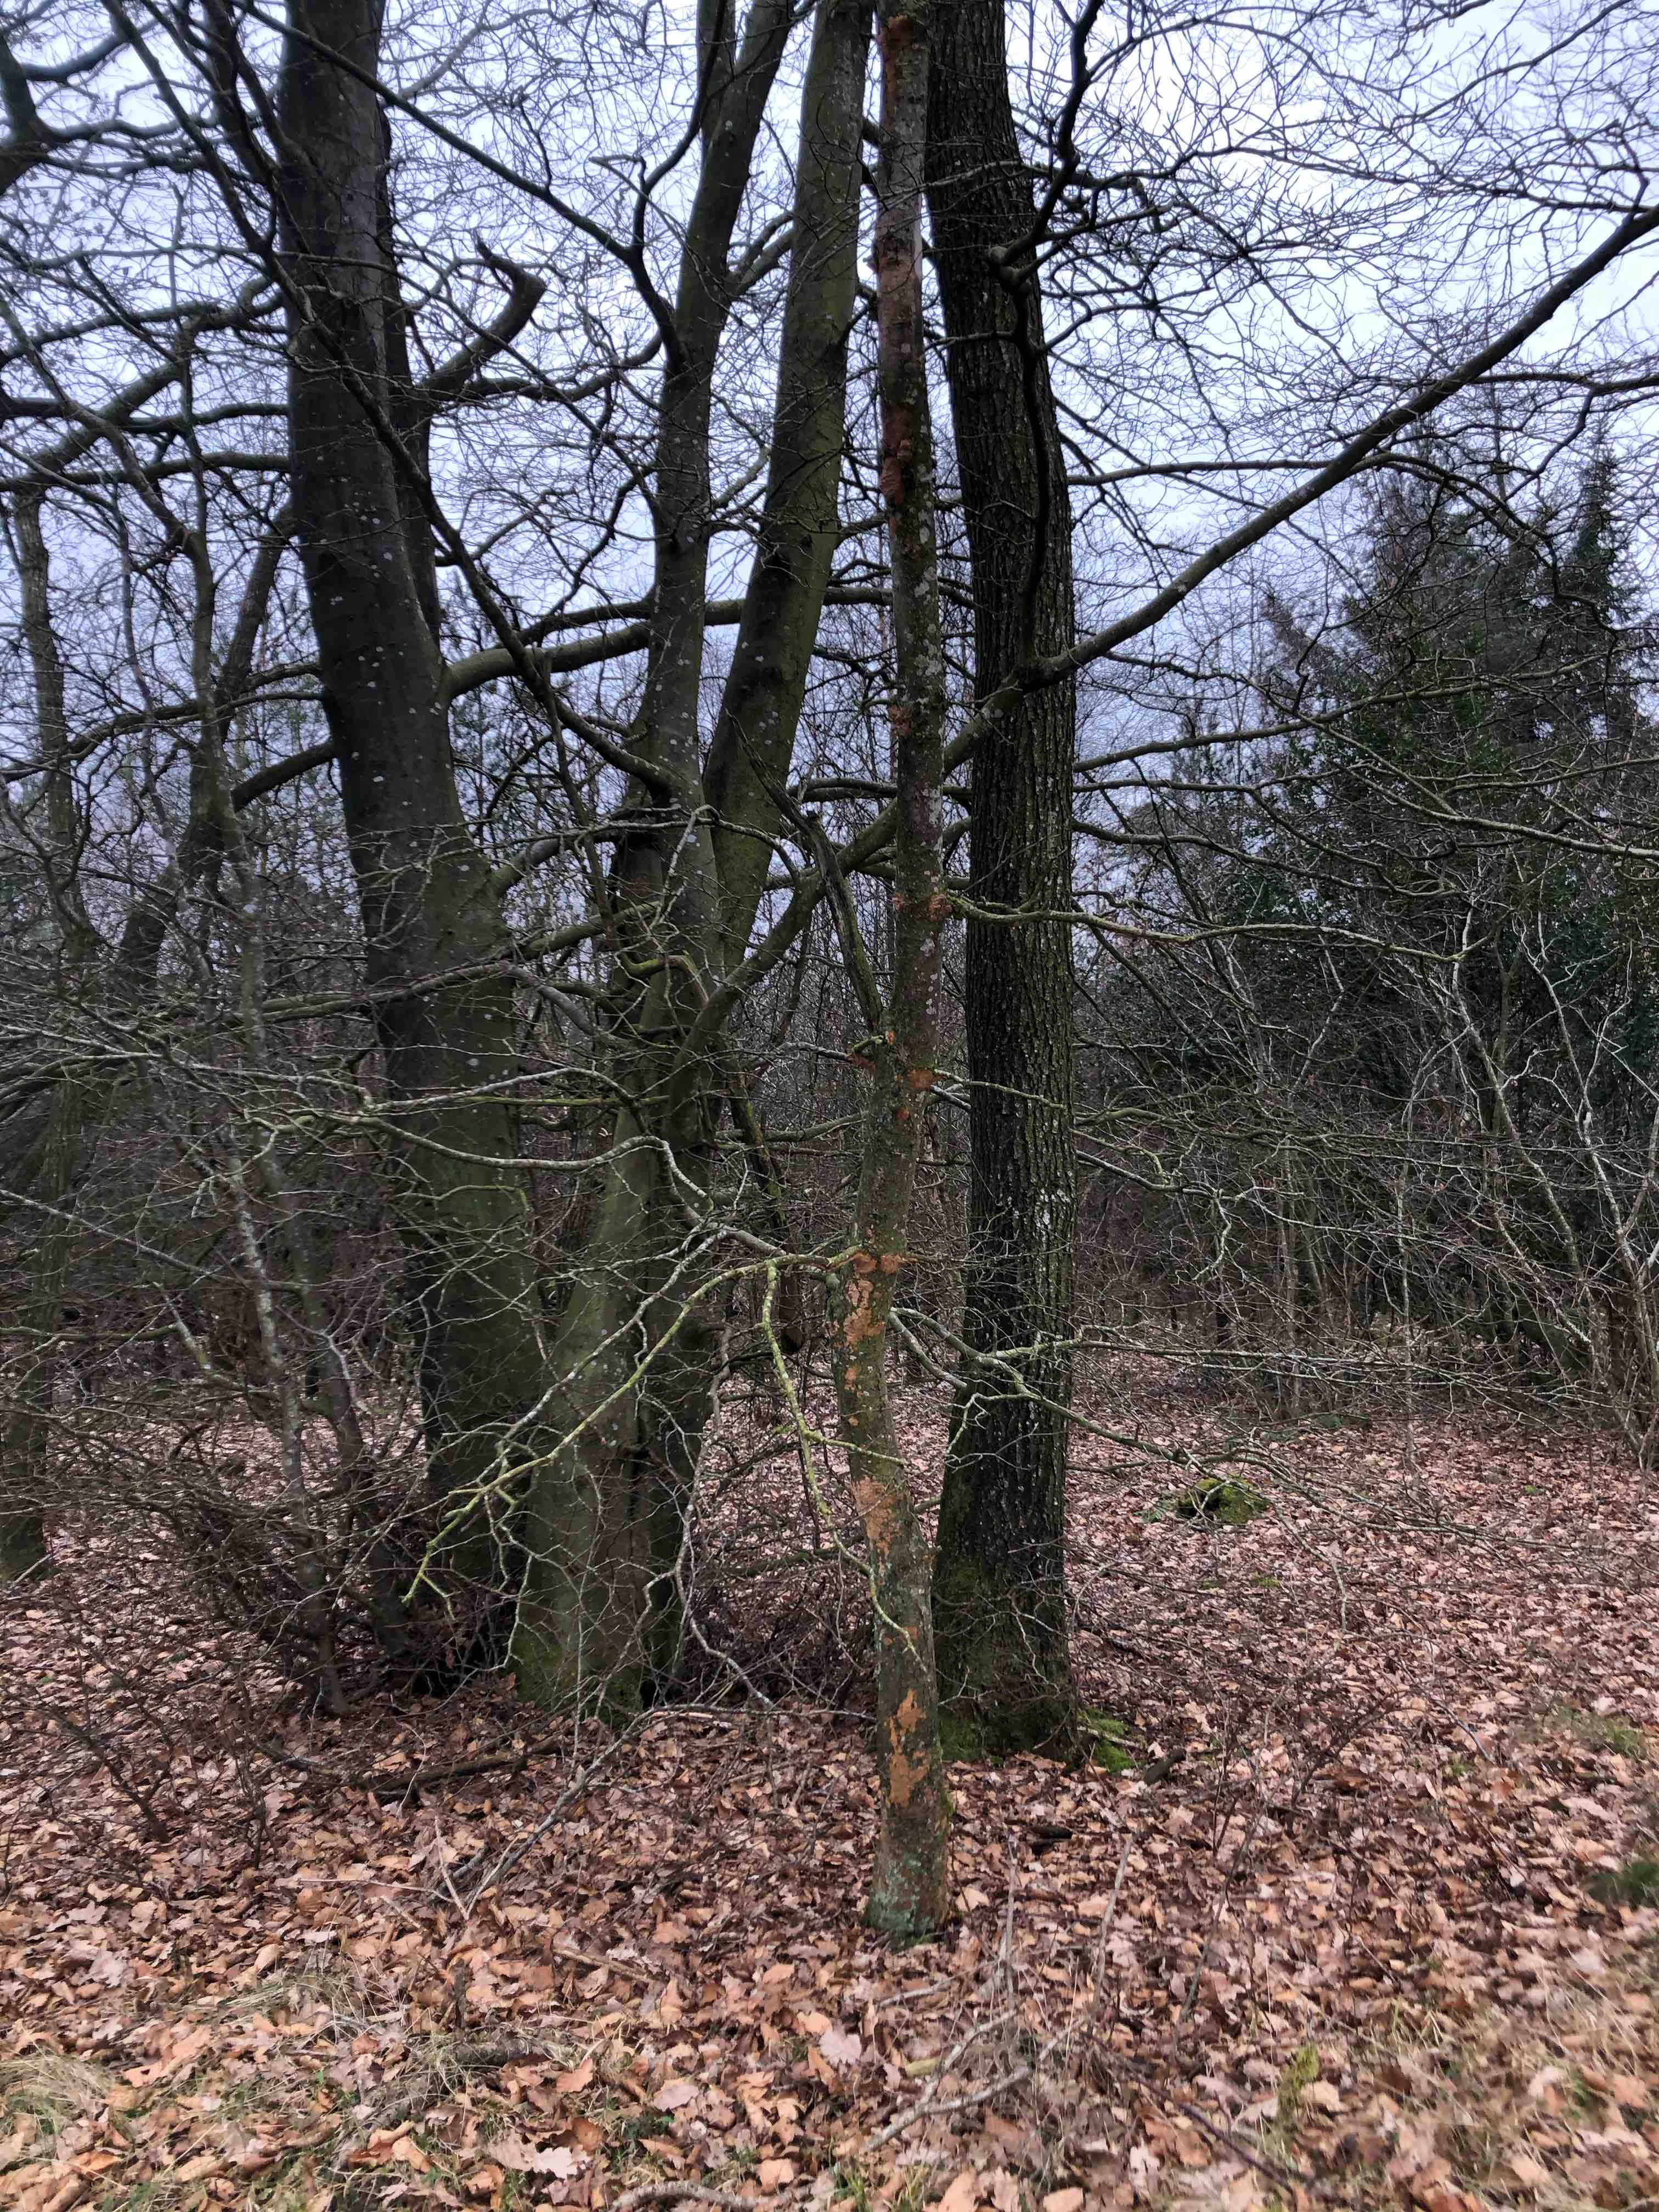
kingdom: Fungi
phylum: Basidiomycota
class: Agaricomycetes
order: Hymenochaetales
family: Hymenochaetaceae
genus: Fuscoporia
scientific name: Fuscoporia ferrea
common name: skorpe-ildporesvamp
